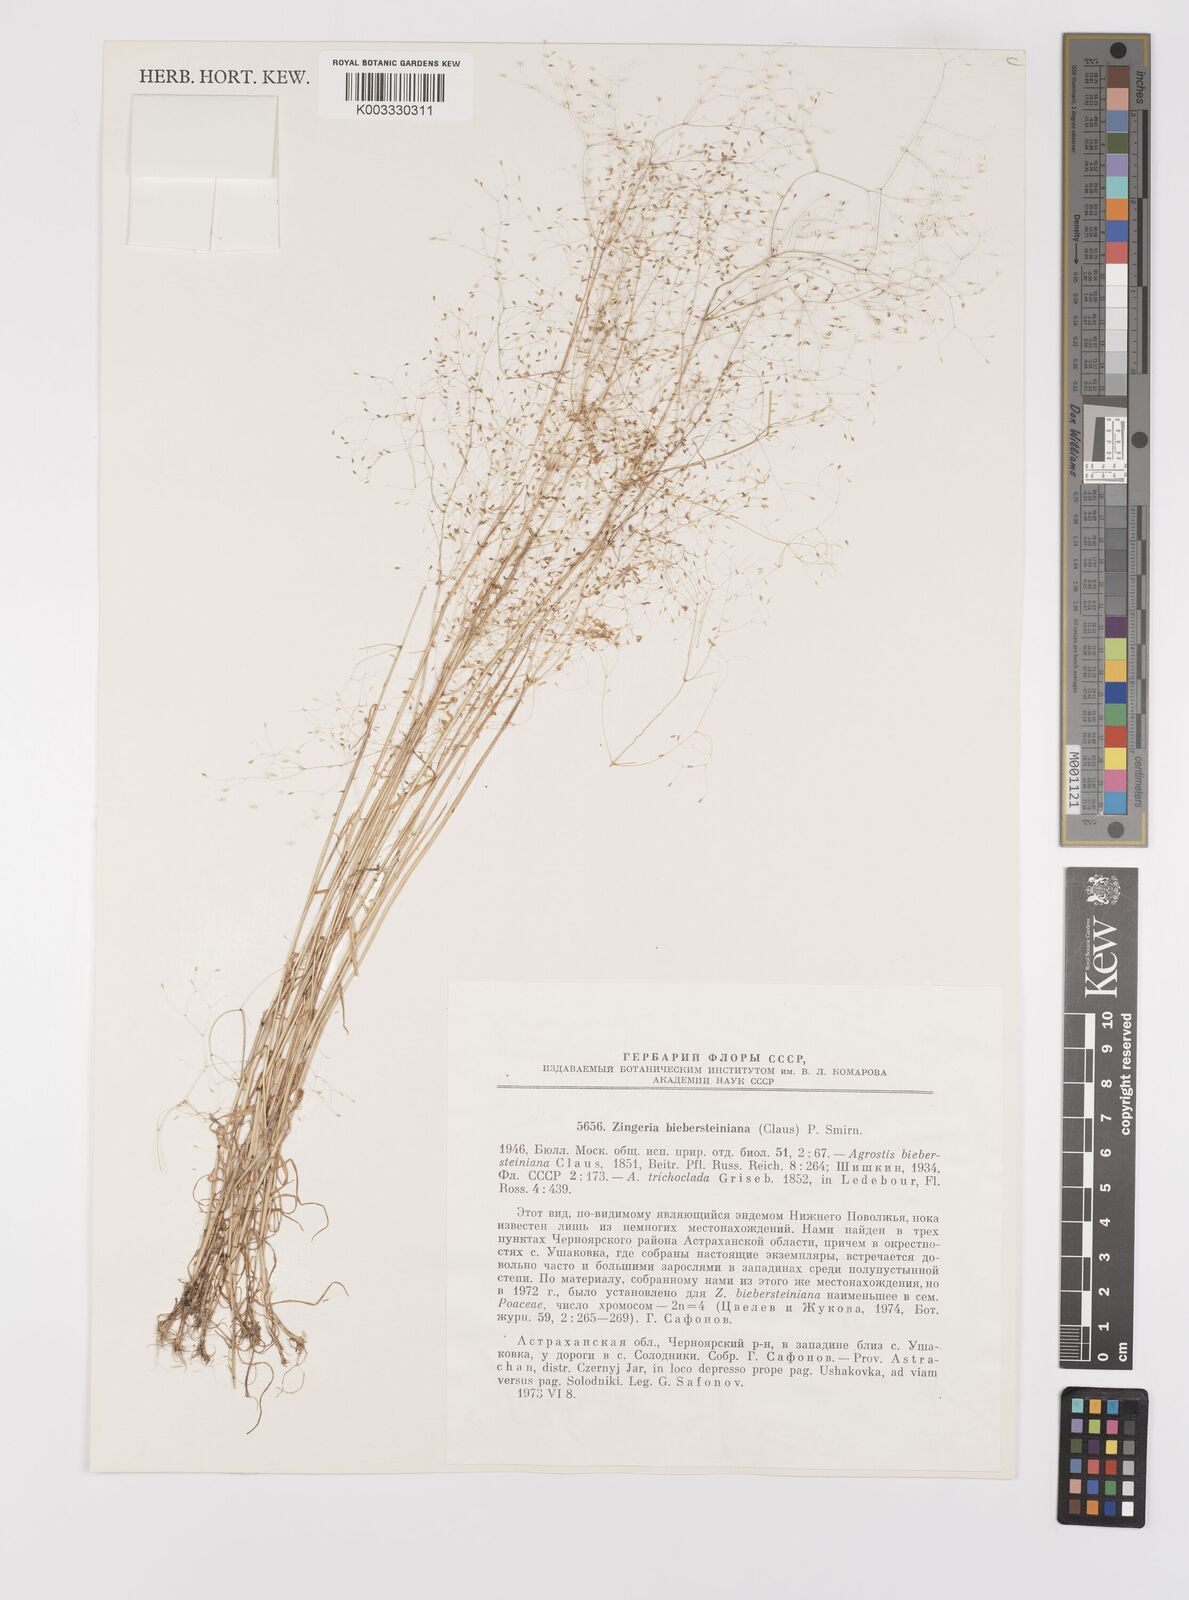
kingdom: Plantae
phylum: Tracheophyta
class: Liliopsida
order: Poales
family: Poaceae
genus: Colpodium
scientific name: Colpodium biebersteinianum
